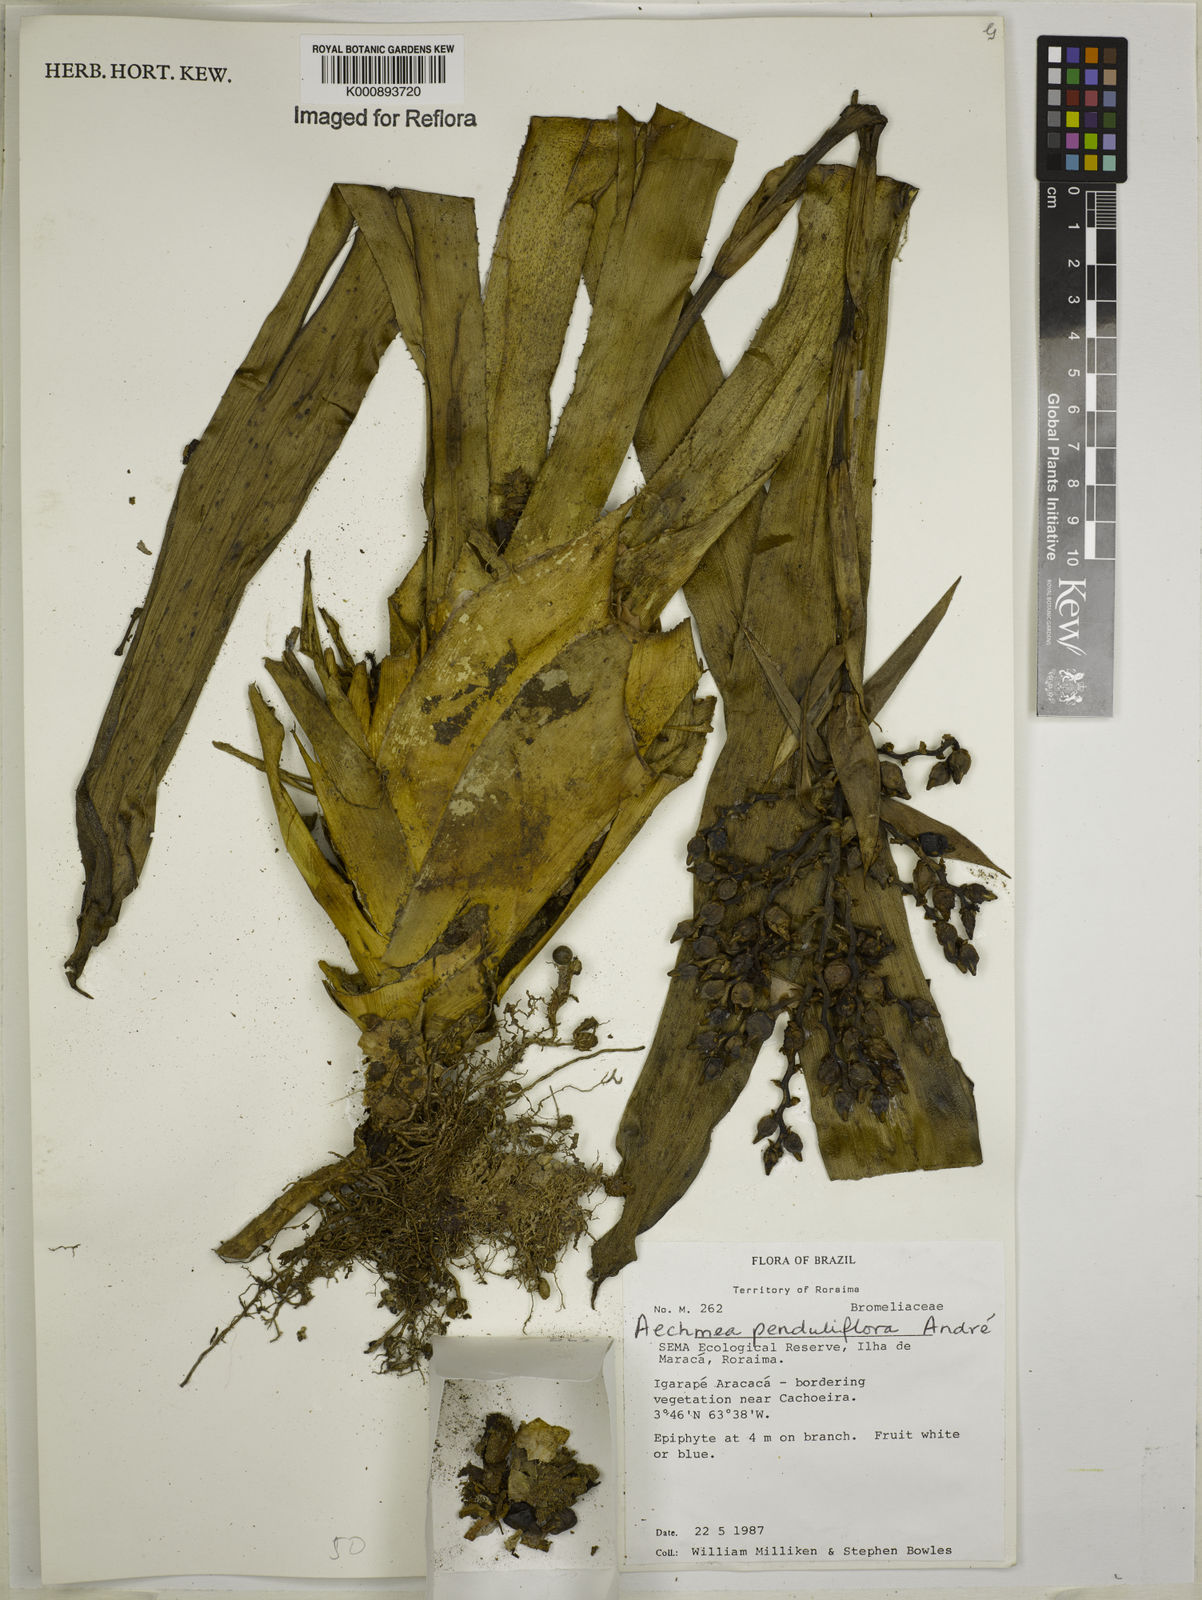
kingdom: Plantae
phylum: Tracheophyta
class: Liliopsida
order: Poales
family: Bromeliaceae
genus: Aechmea
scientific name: Aechmea
